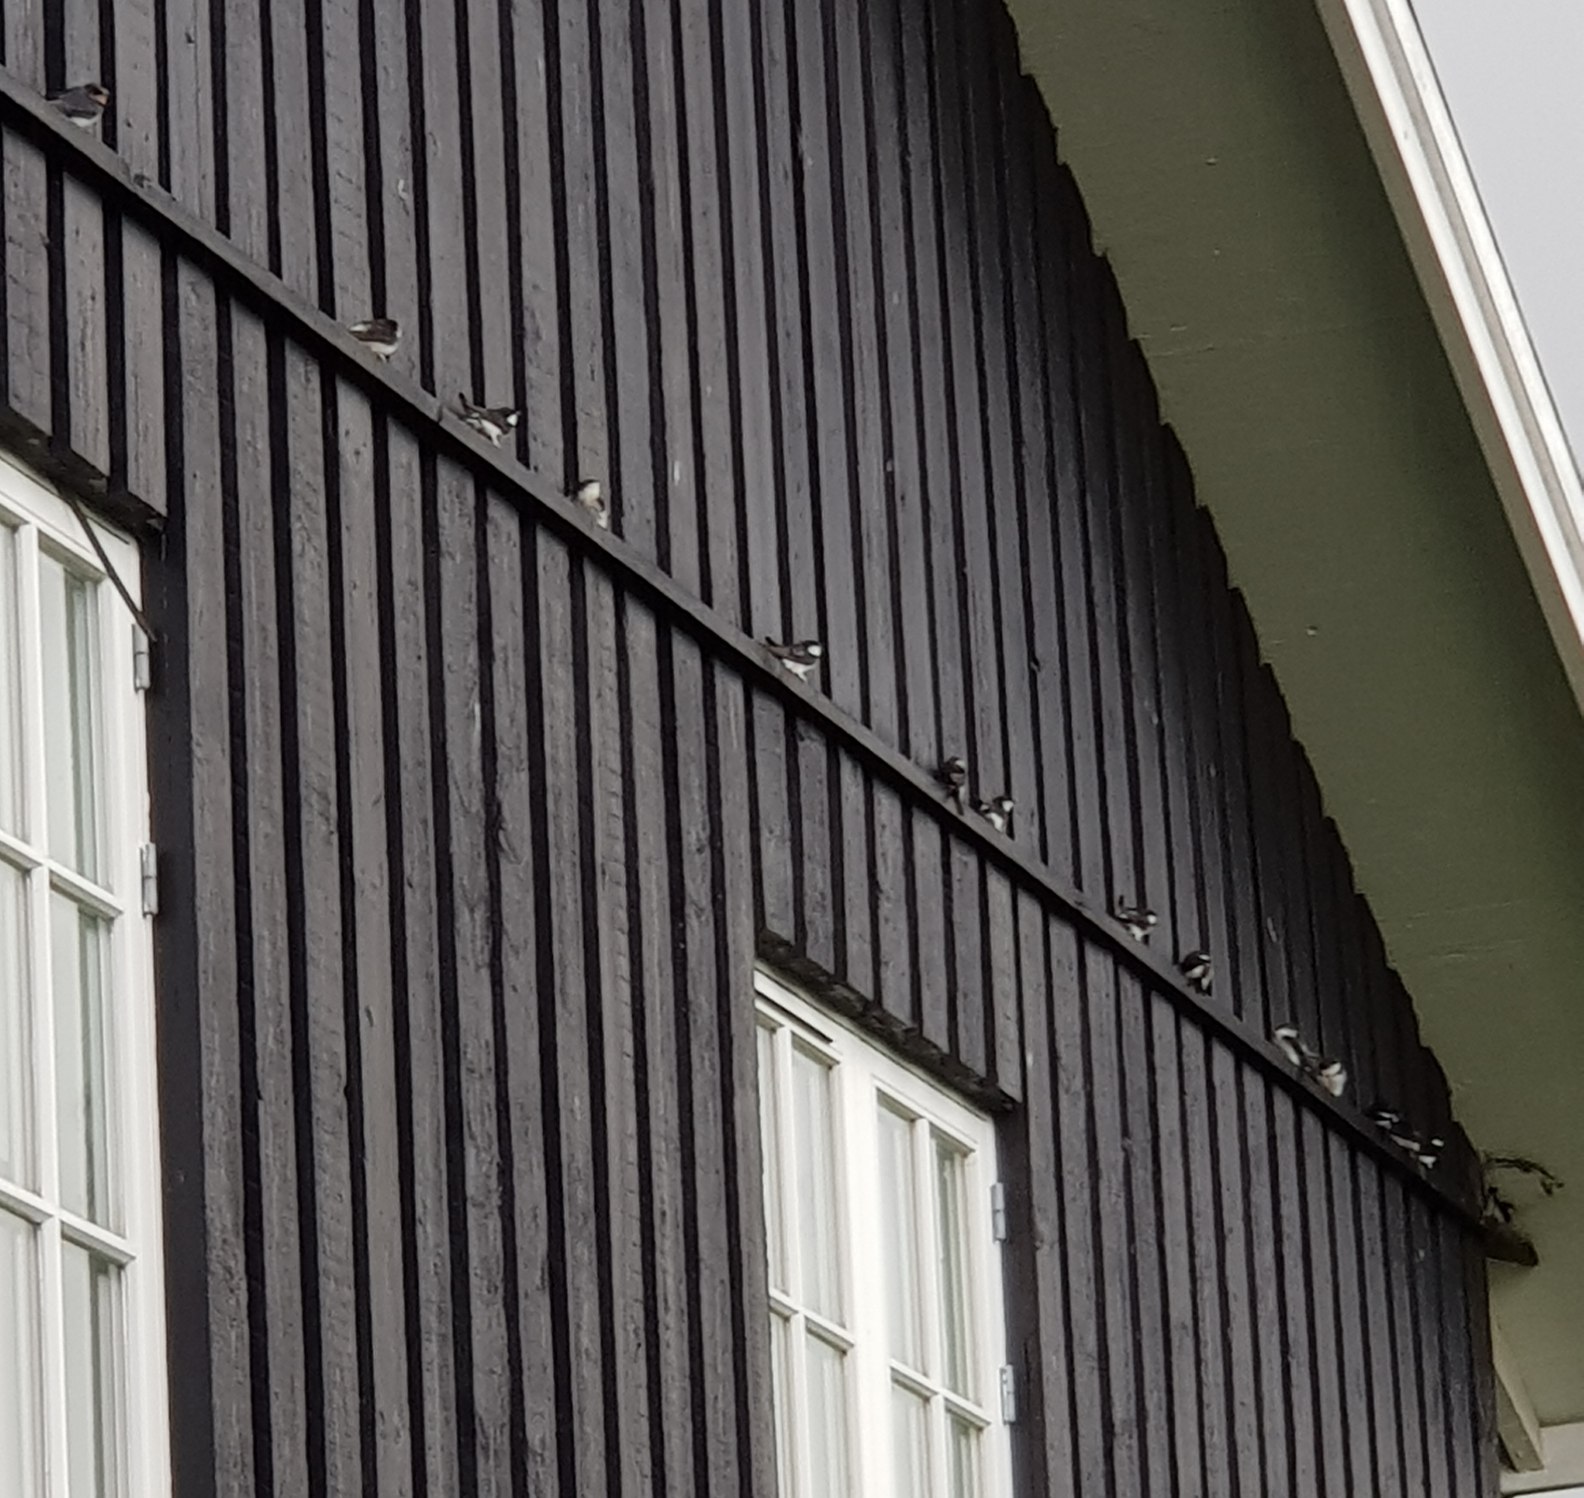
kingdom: Animalia
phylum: Chordata
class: Aves
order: Passeriformes
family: Hirundinidae
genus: Delichon
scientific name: Delichon urbicum
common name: Bysvale
